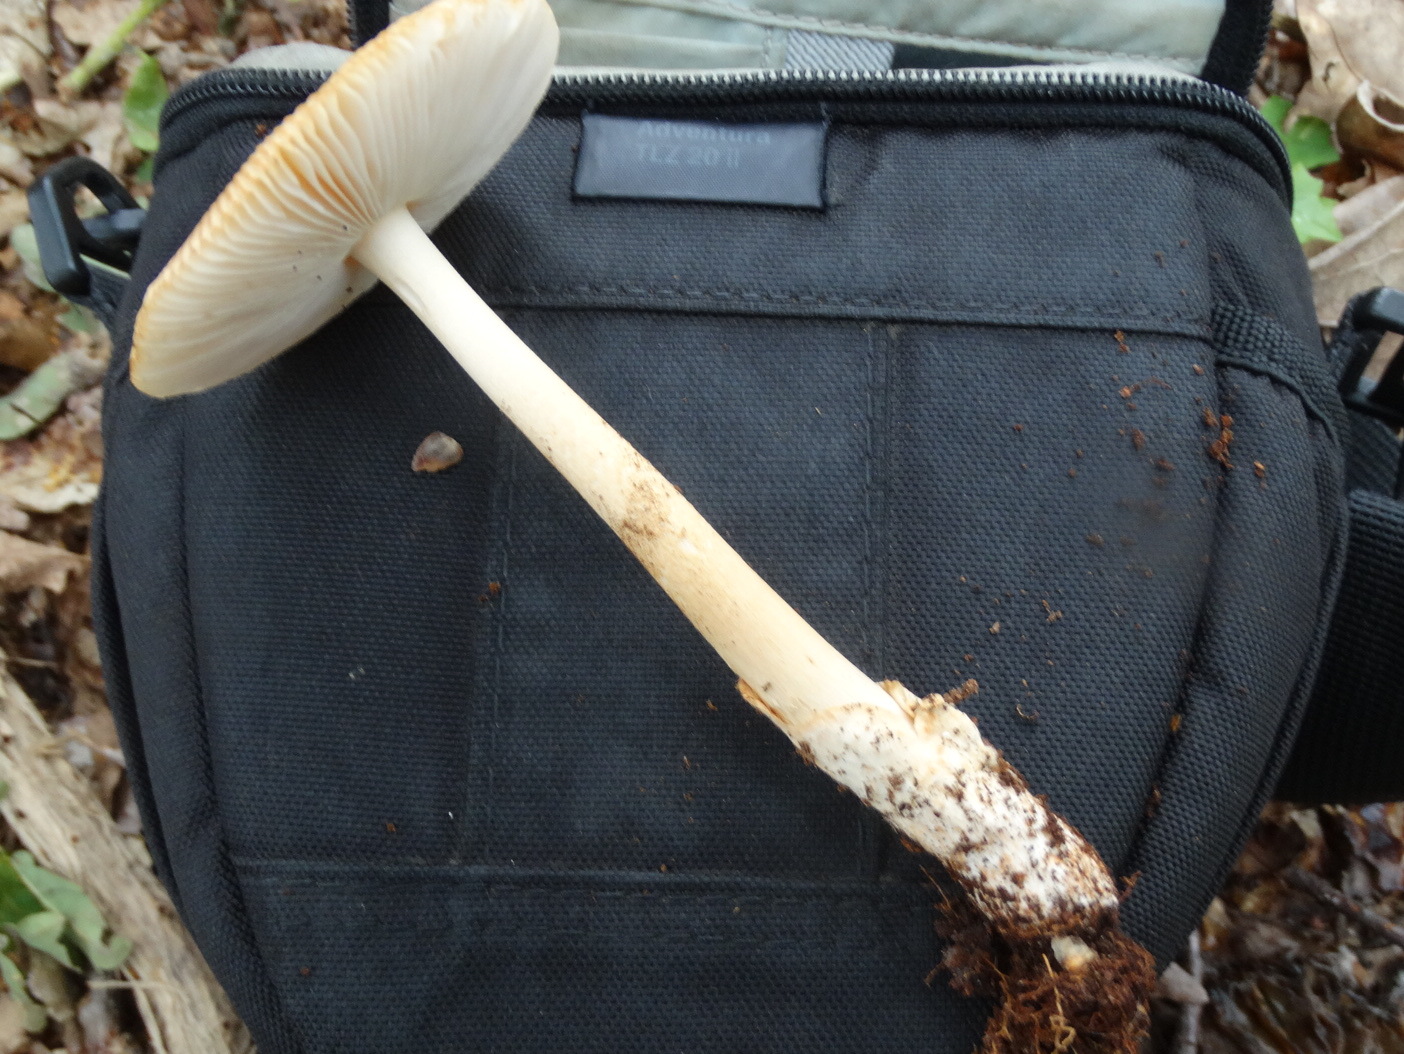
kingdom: Fungi
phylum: Basidiomycota
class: Agaricomycetes
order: Agaricales
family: Amanitaceae
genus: Amanita
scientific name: Amanita fulva
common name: brun kam-fluesvamp
